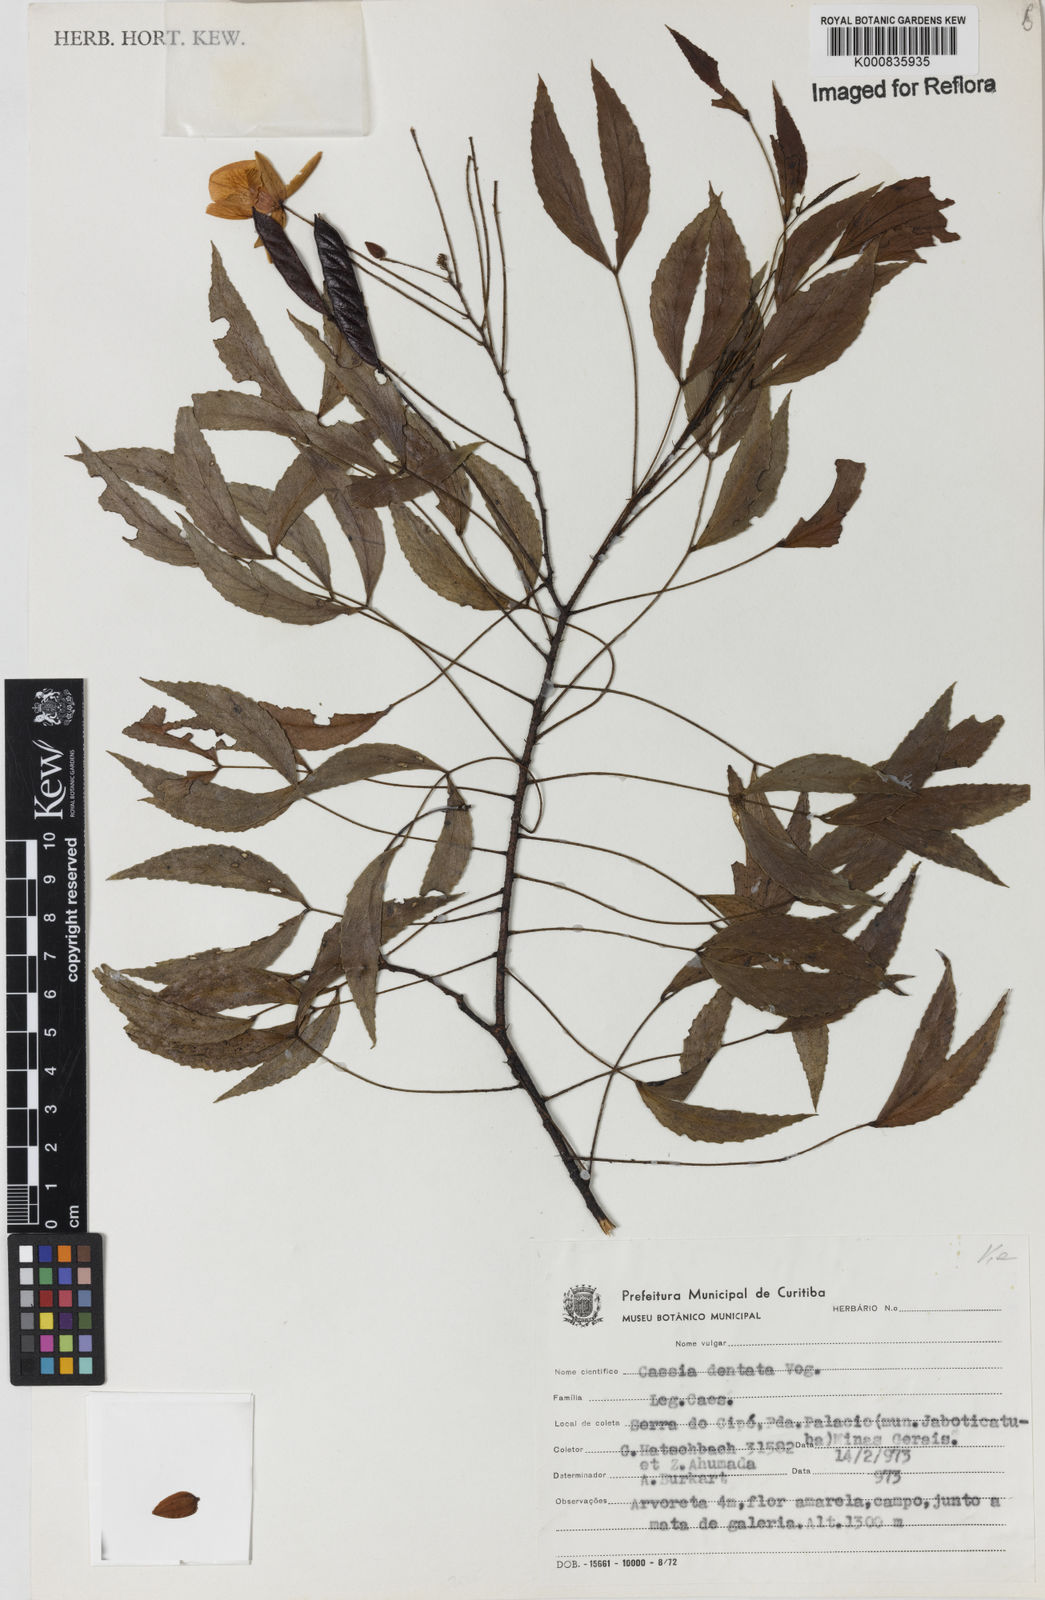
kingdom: Plantae
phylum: Tracheophyta
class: Magnoliopsida
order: Fabales
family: Fabaceae
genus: Chamaecrista
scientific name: Chamaecrista dentata
